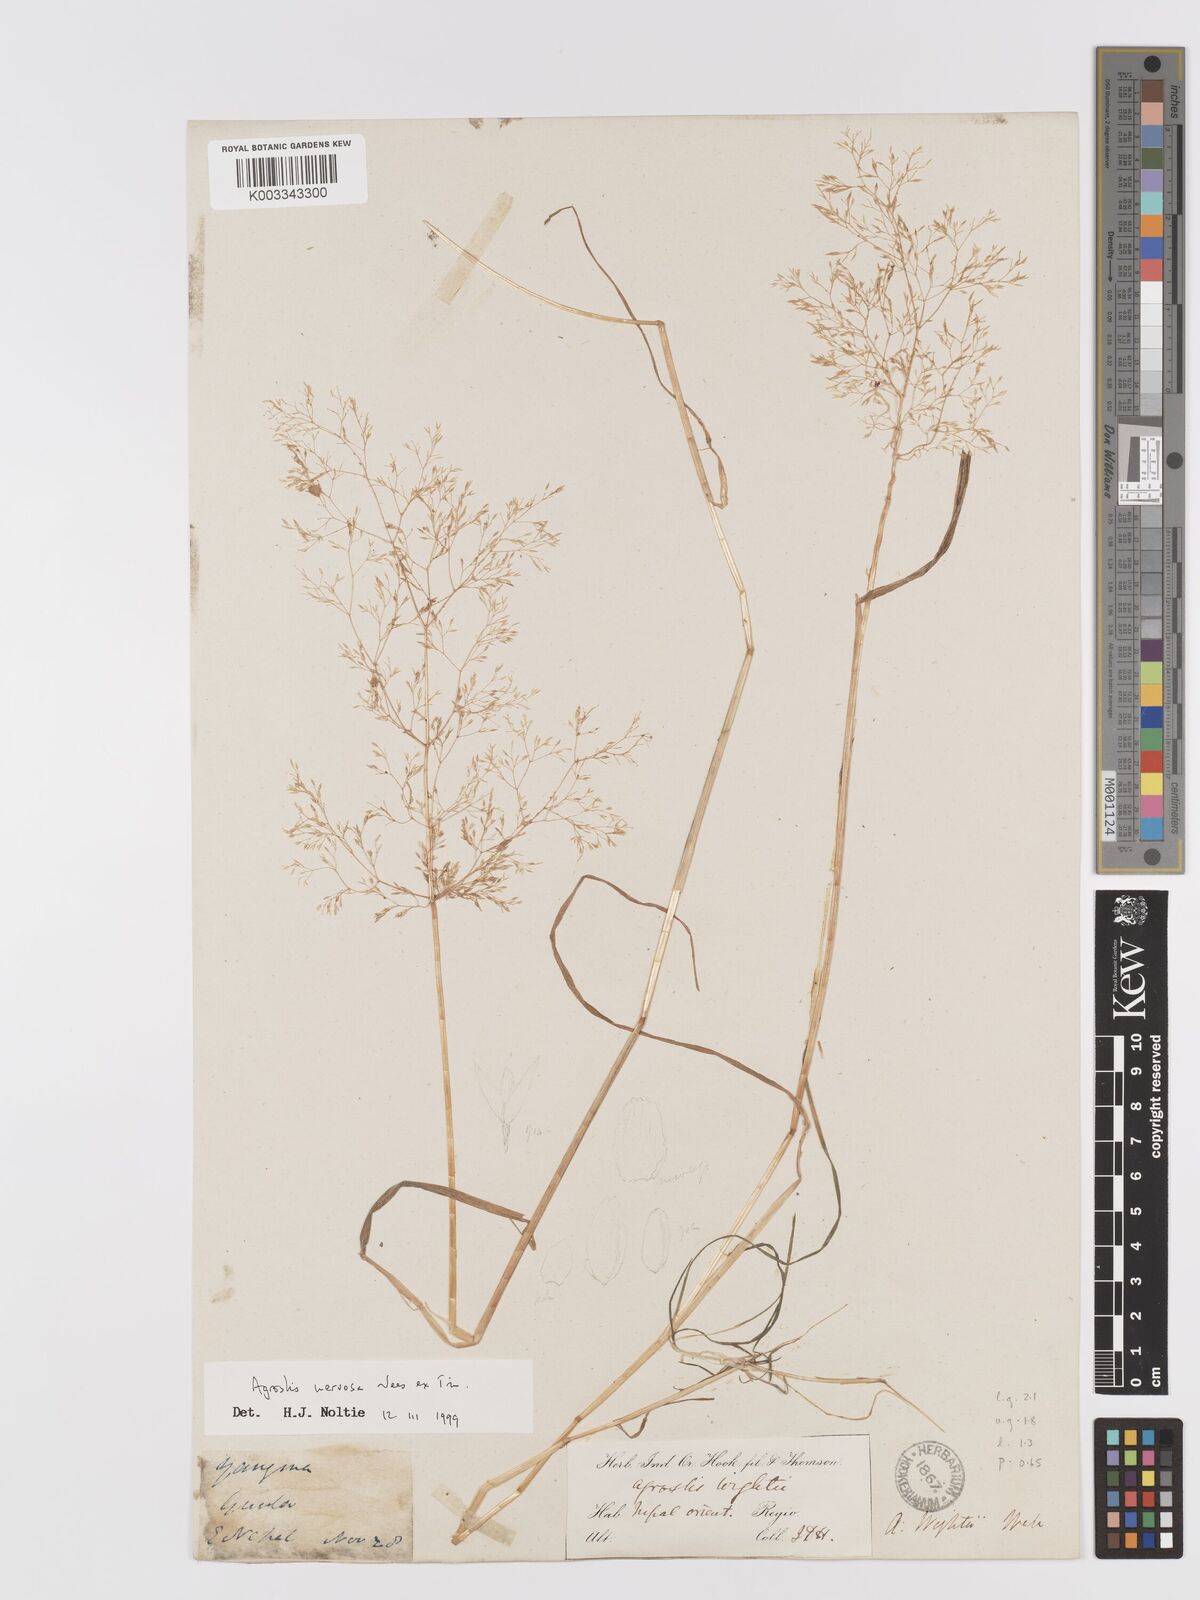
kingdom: Plantae
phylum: Tracheophyta
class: Liliopsida
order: Poales
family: Poaceae
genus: Agrostis
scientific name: Agrostis nervosa
